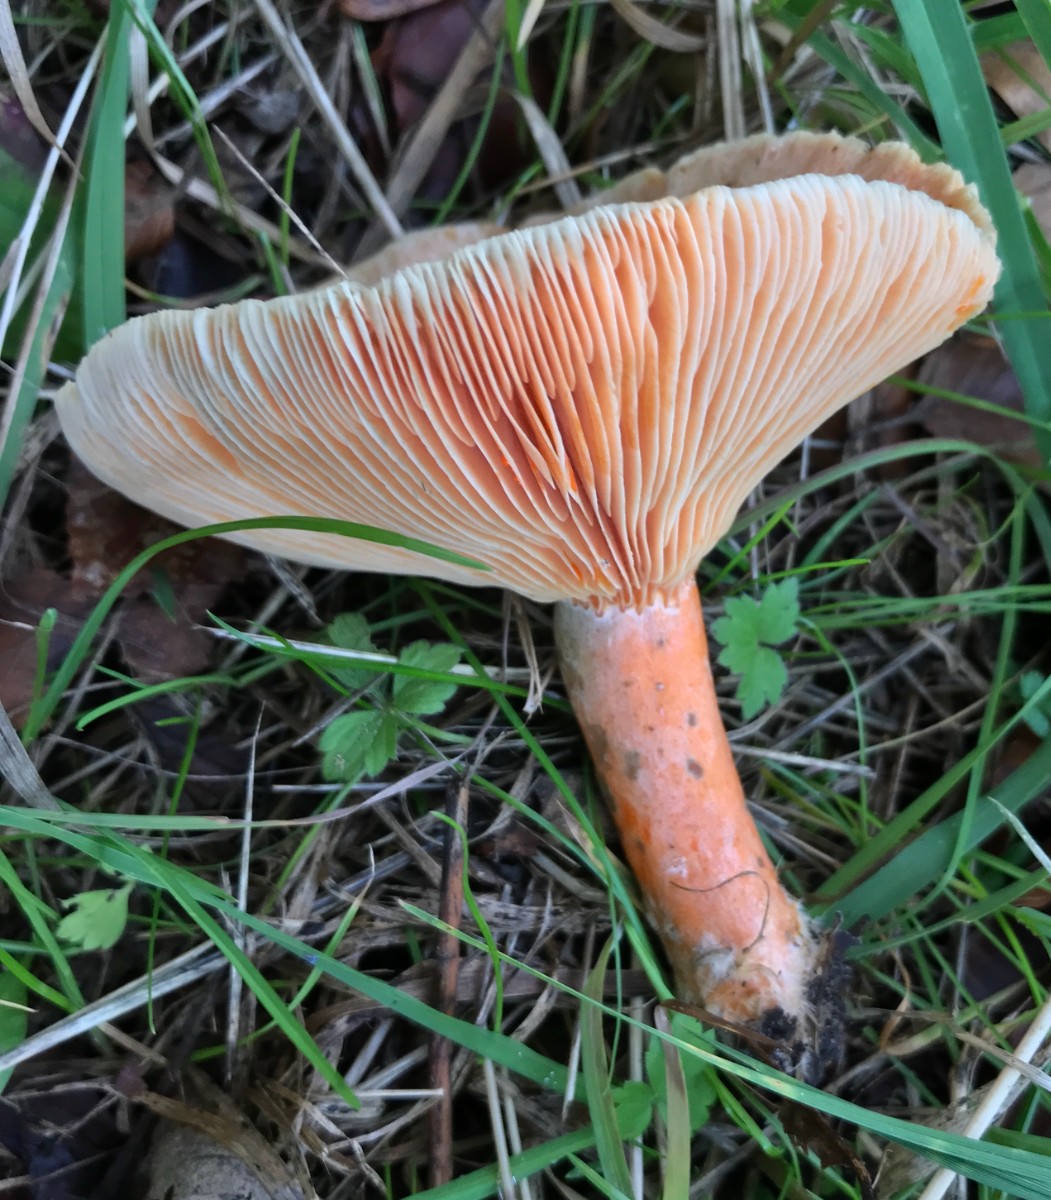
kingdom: Fungi
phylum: Basidiomycota
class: Agaricomycetes
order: Russulales
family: Russulaceae
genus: Lactarius
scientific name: Lactarius deterrimus
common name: gran-mælkehat
